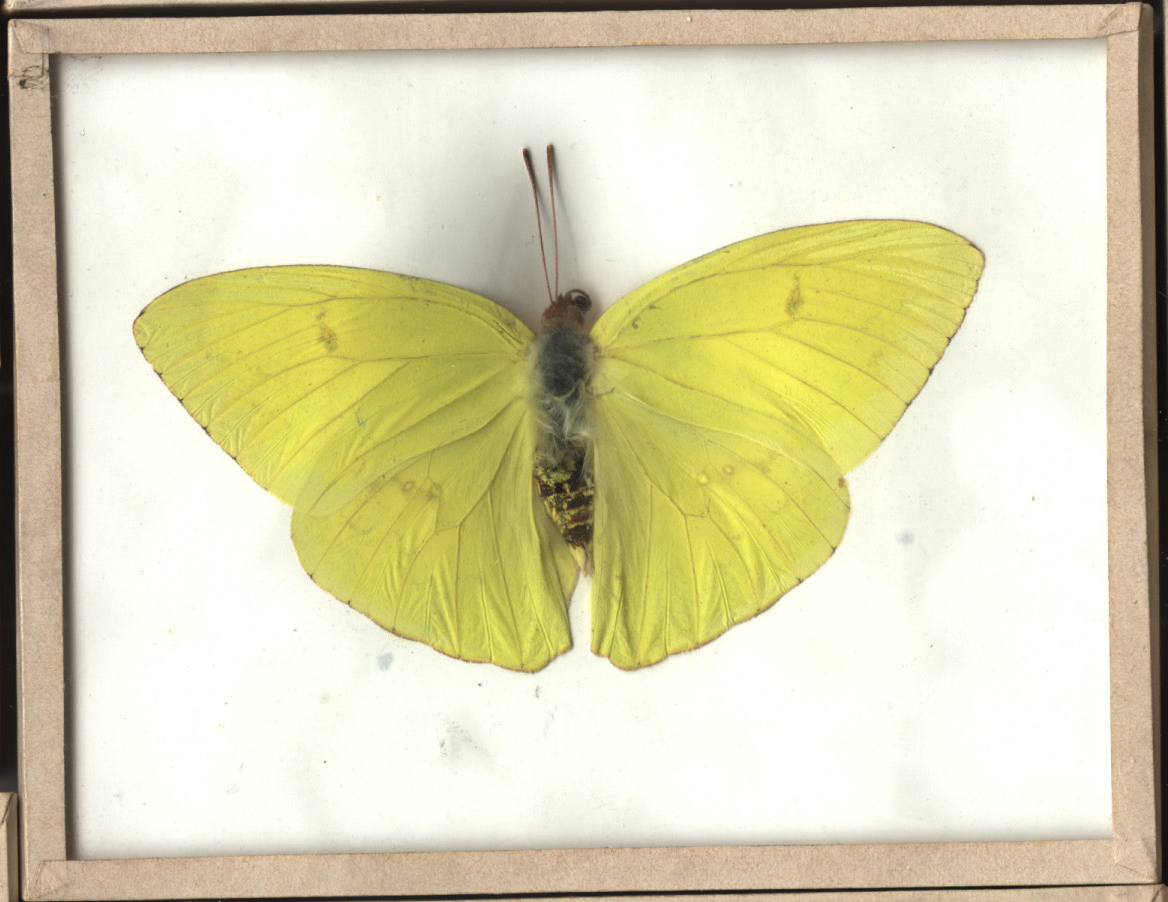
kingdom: Animalia
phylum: Arthropoda
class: Insecta
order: Lepidoptera
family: Pieridae
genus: Phoebis
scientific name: Phoebis sennae
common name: Cloudless Sulphur
